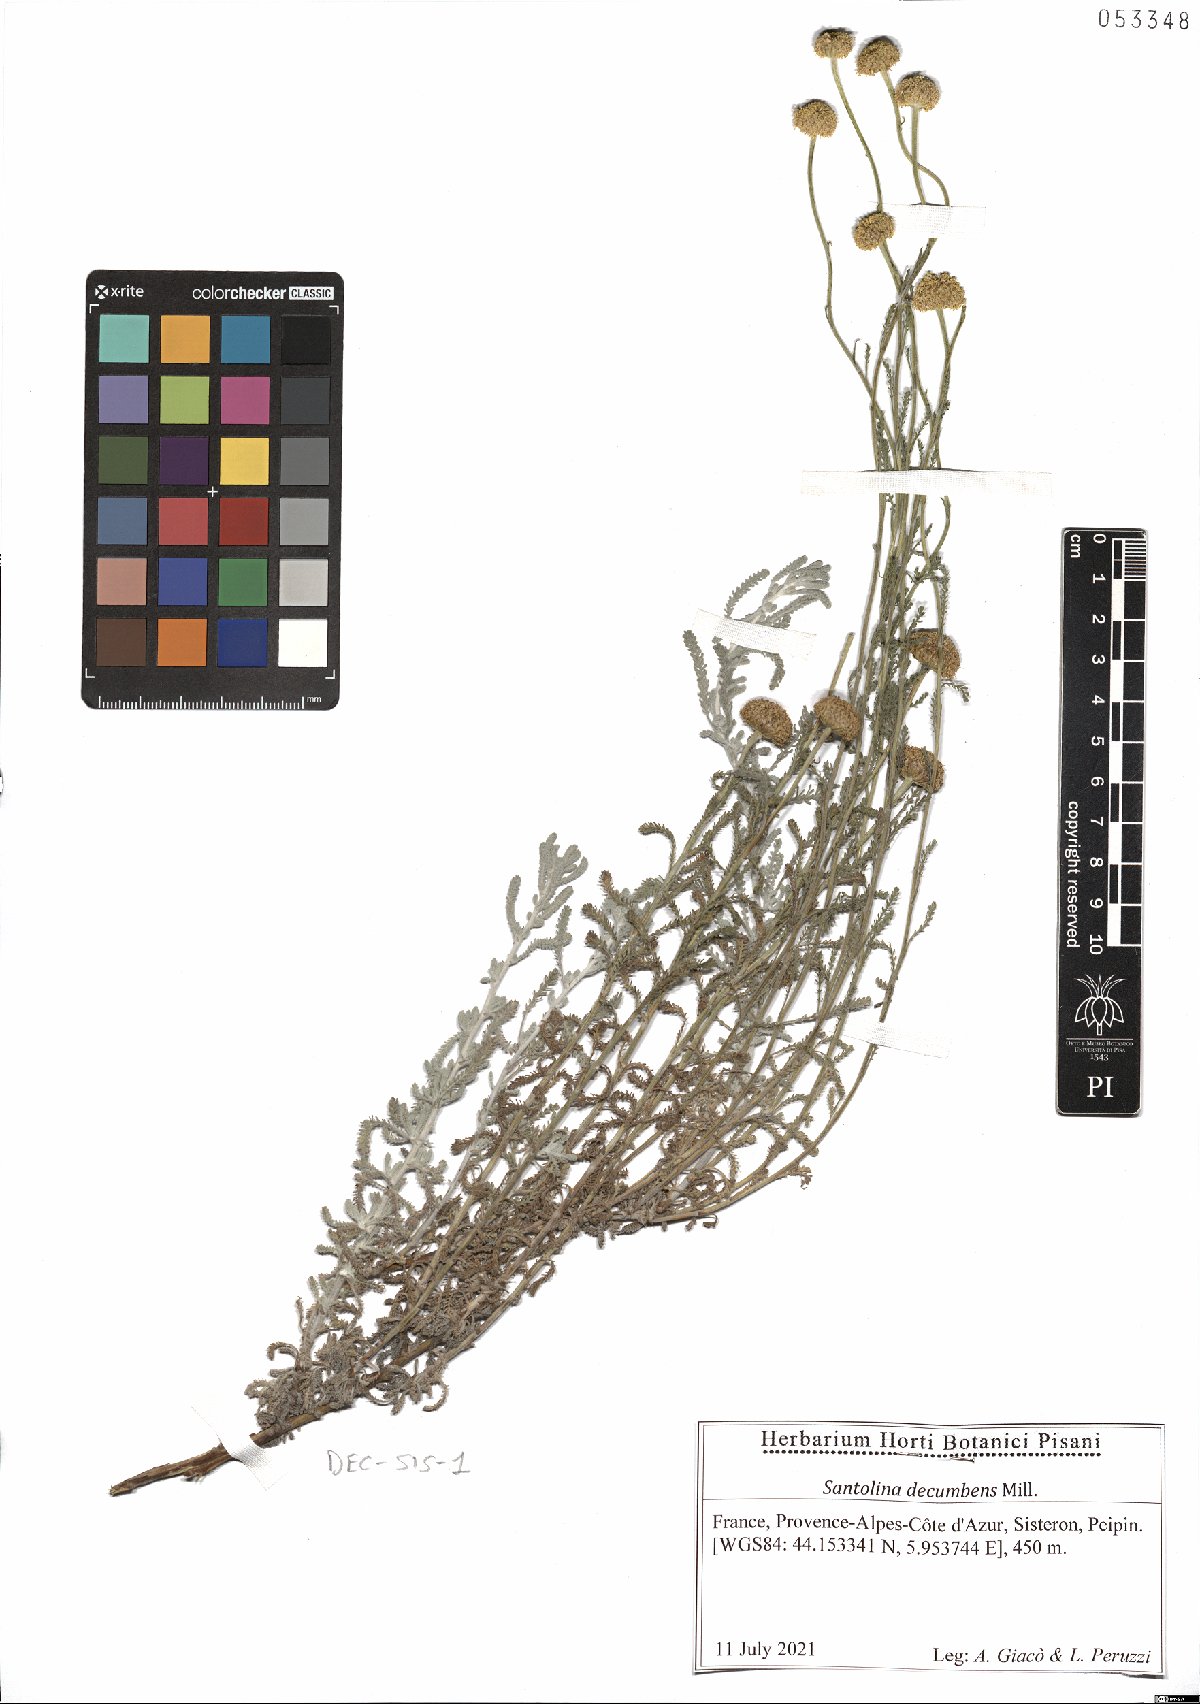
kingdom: Plantae
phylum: Tracheophyta
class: Magnoliopsida
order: Asterales
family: Asteraceae
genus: Santolina
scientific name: Santolina decumbens
